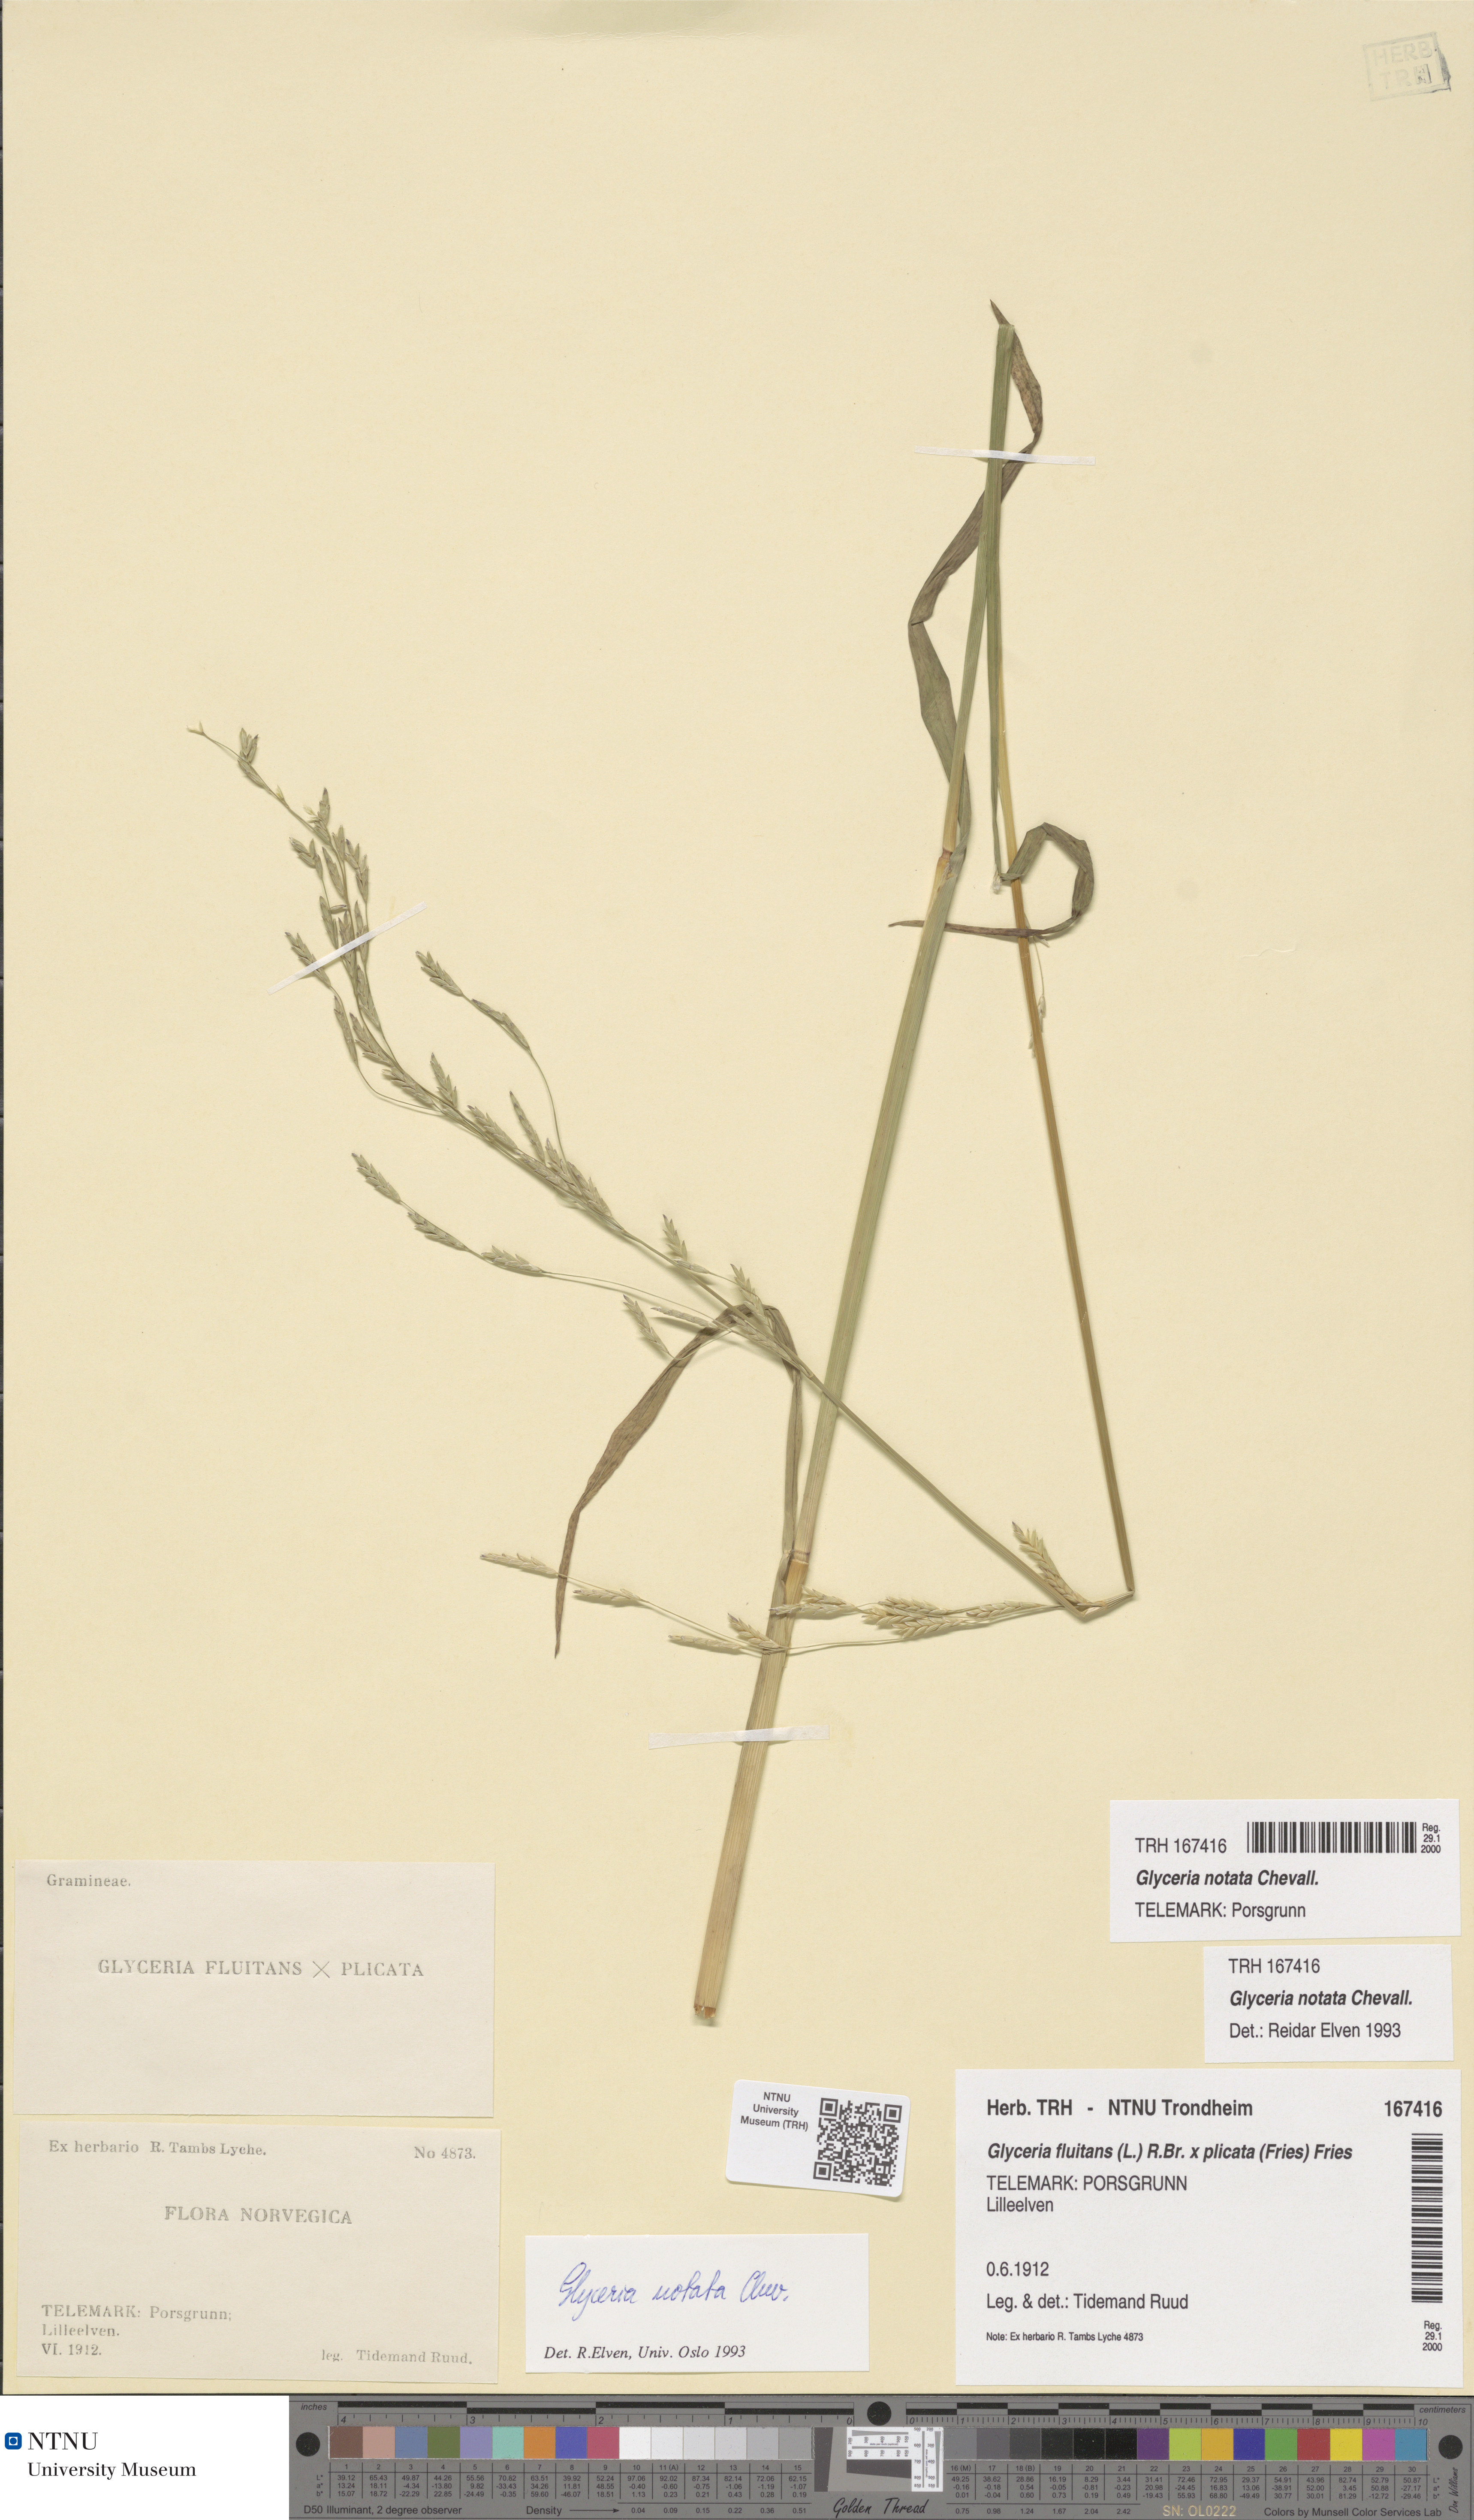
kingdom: Plantae
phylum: Tracheophyta
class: Liliopsida
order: Poales
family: Poaceae
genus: Glyceria
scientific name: Glyceria notata
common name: Plicate sweet-grass
